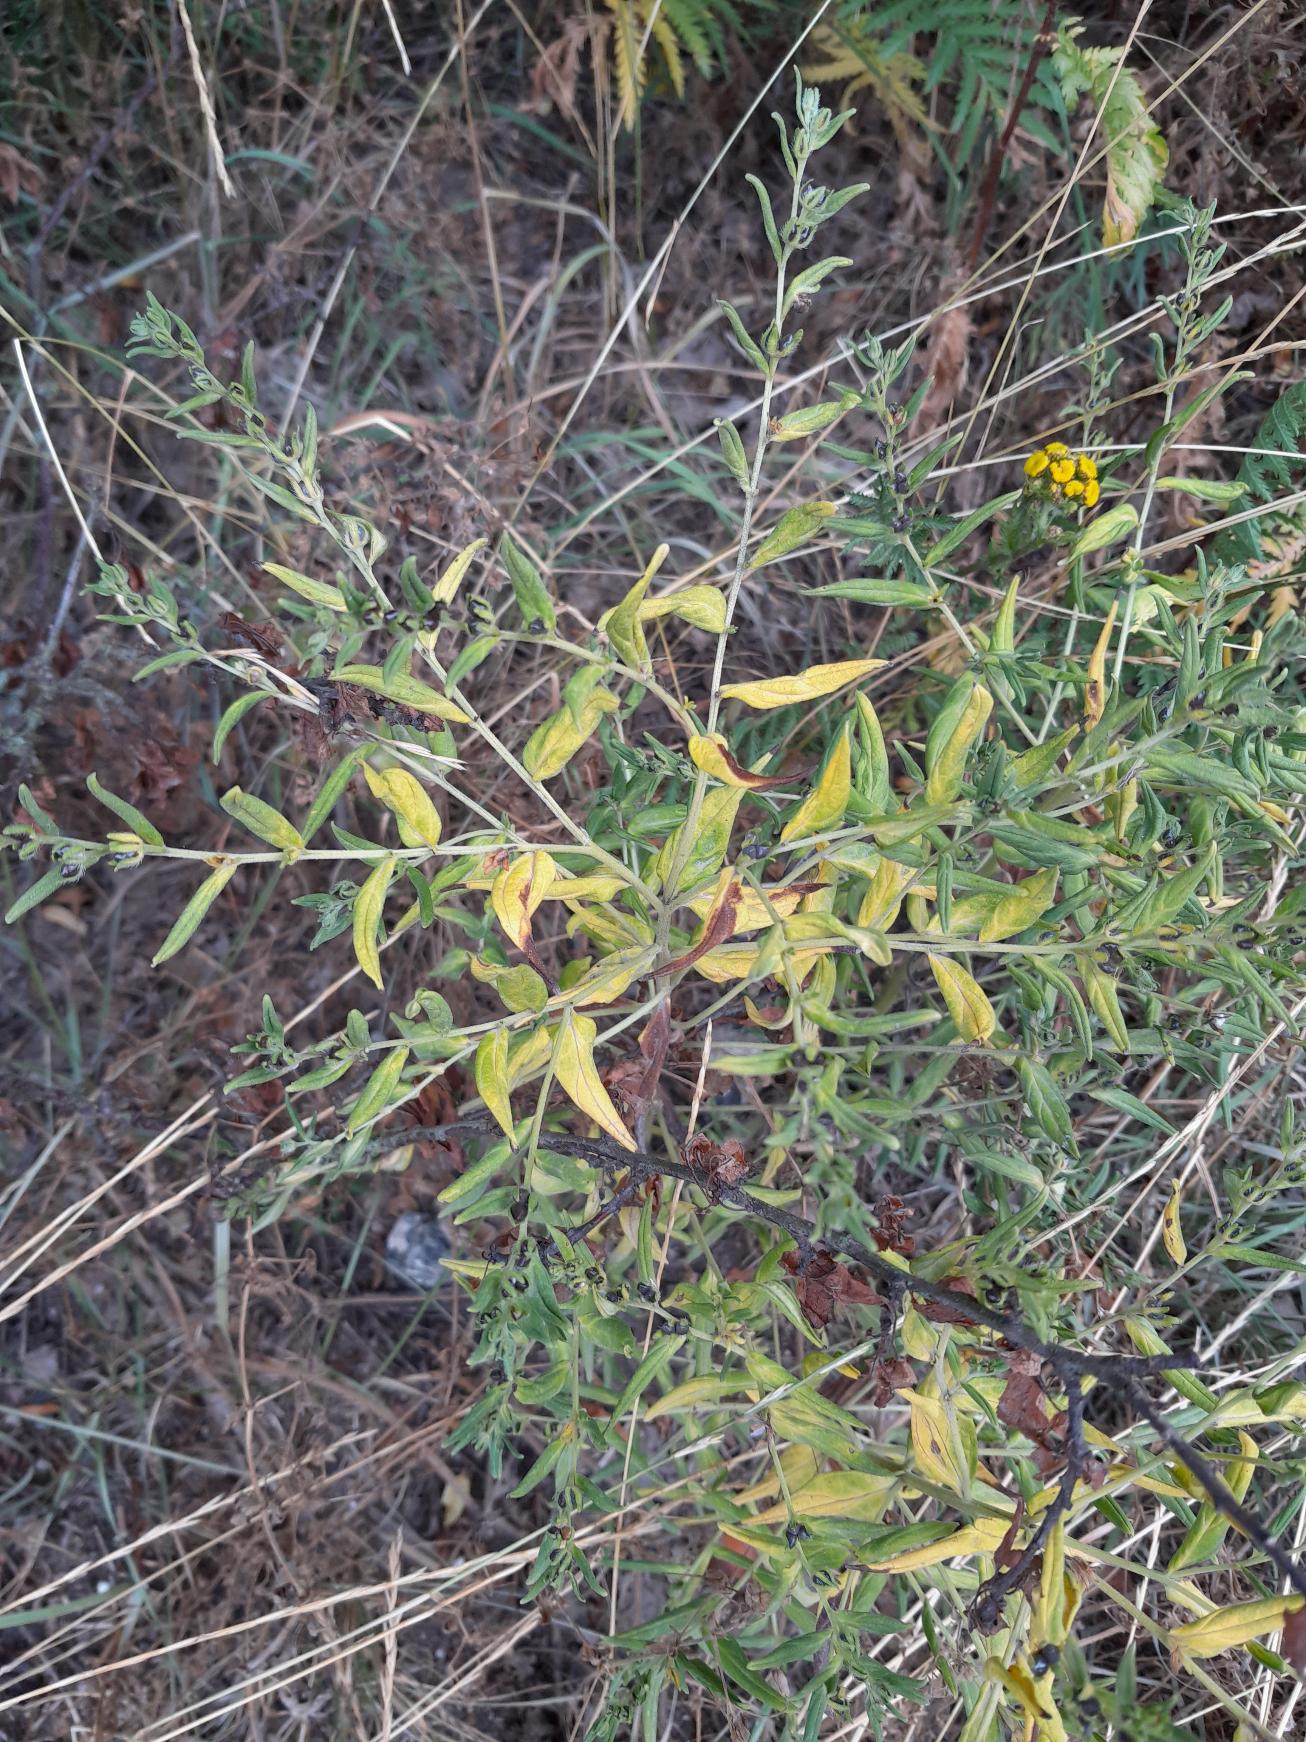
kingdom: Plantae
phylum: Tracheophyta
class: Magnoliopsida
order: Boraginales
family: Boraginaceae
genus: Lithospermum
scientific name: Lithospermum officinale
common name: Læge-stenfrø
